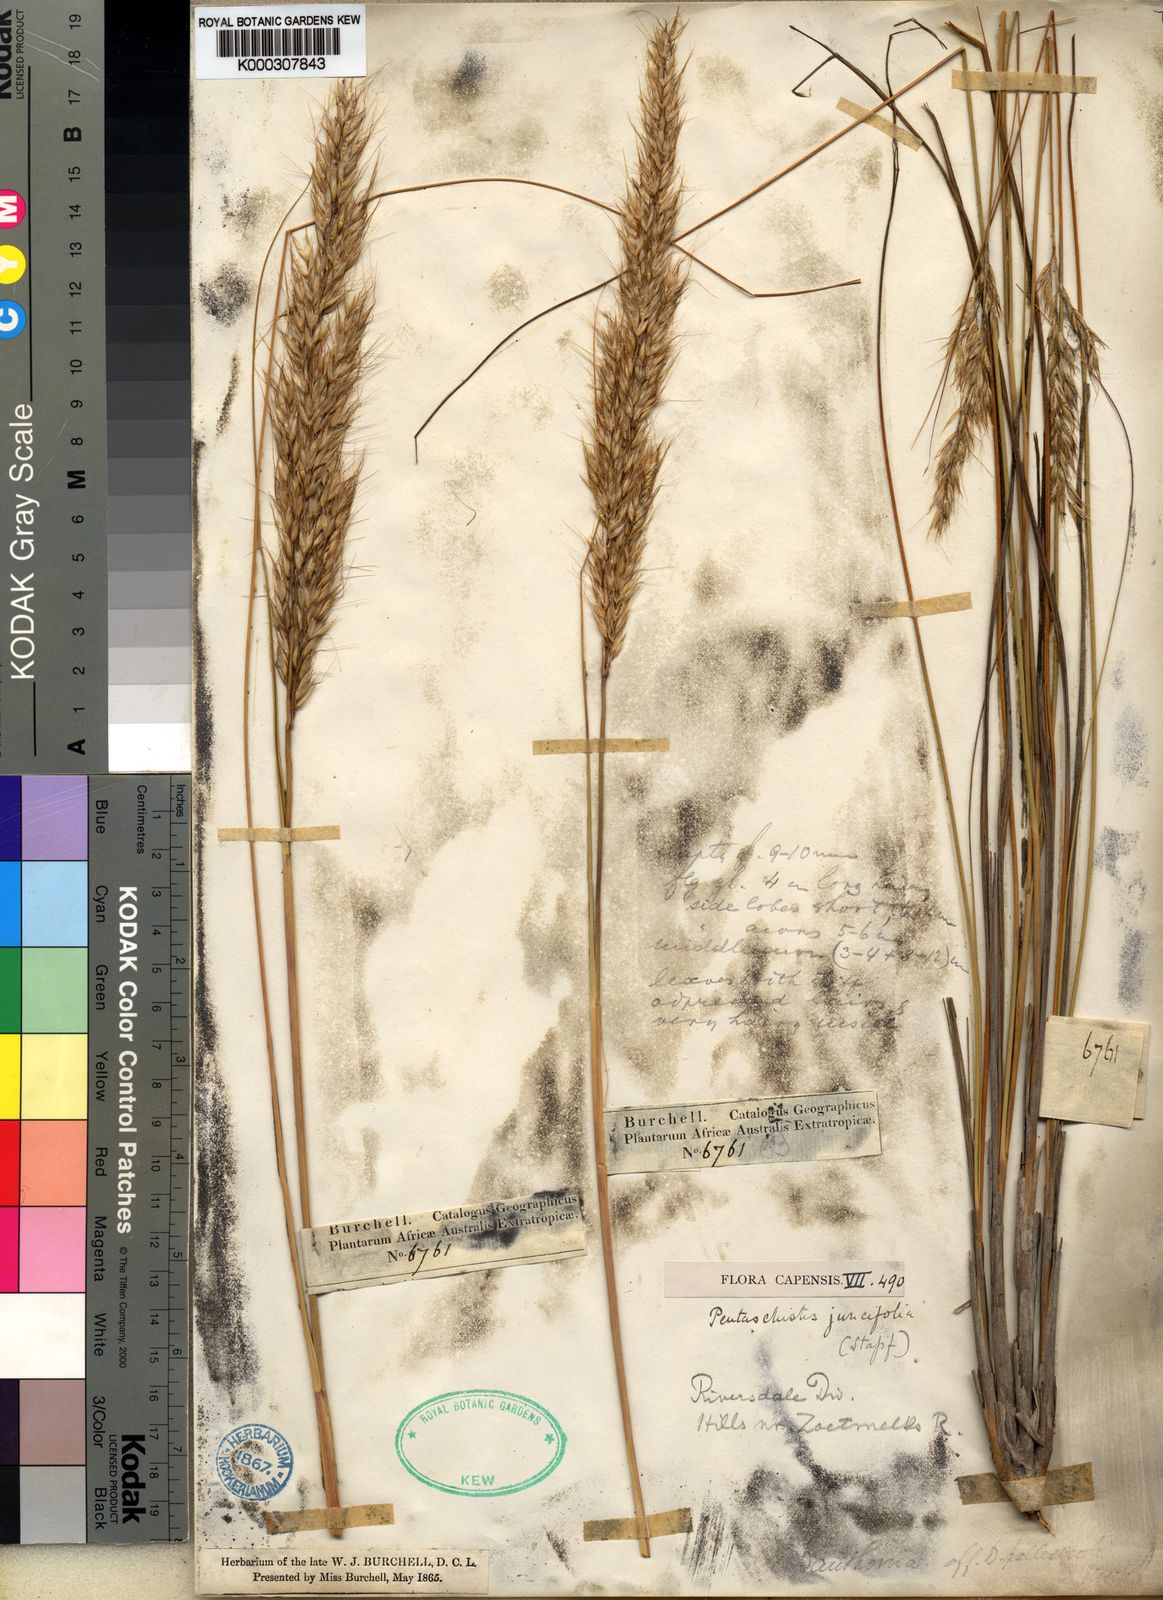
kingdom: Plantae
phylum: Tracheophyta
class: Liliopsida
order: Poales
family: Poaceae
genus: Pentameris
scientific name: Pentameris eriostoma
